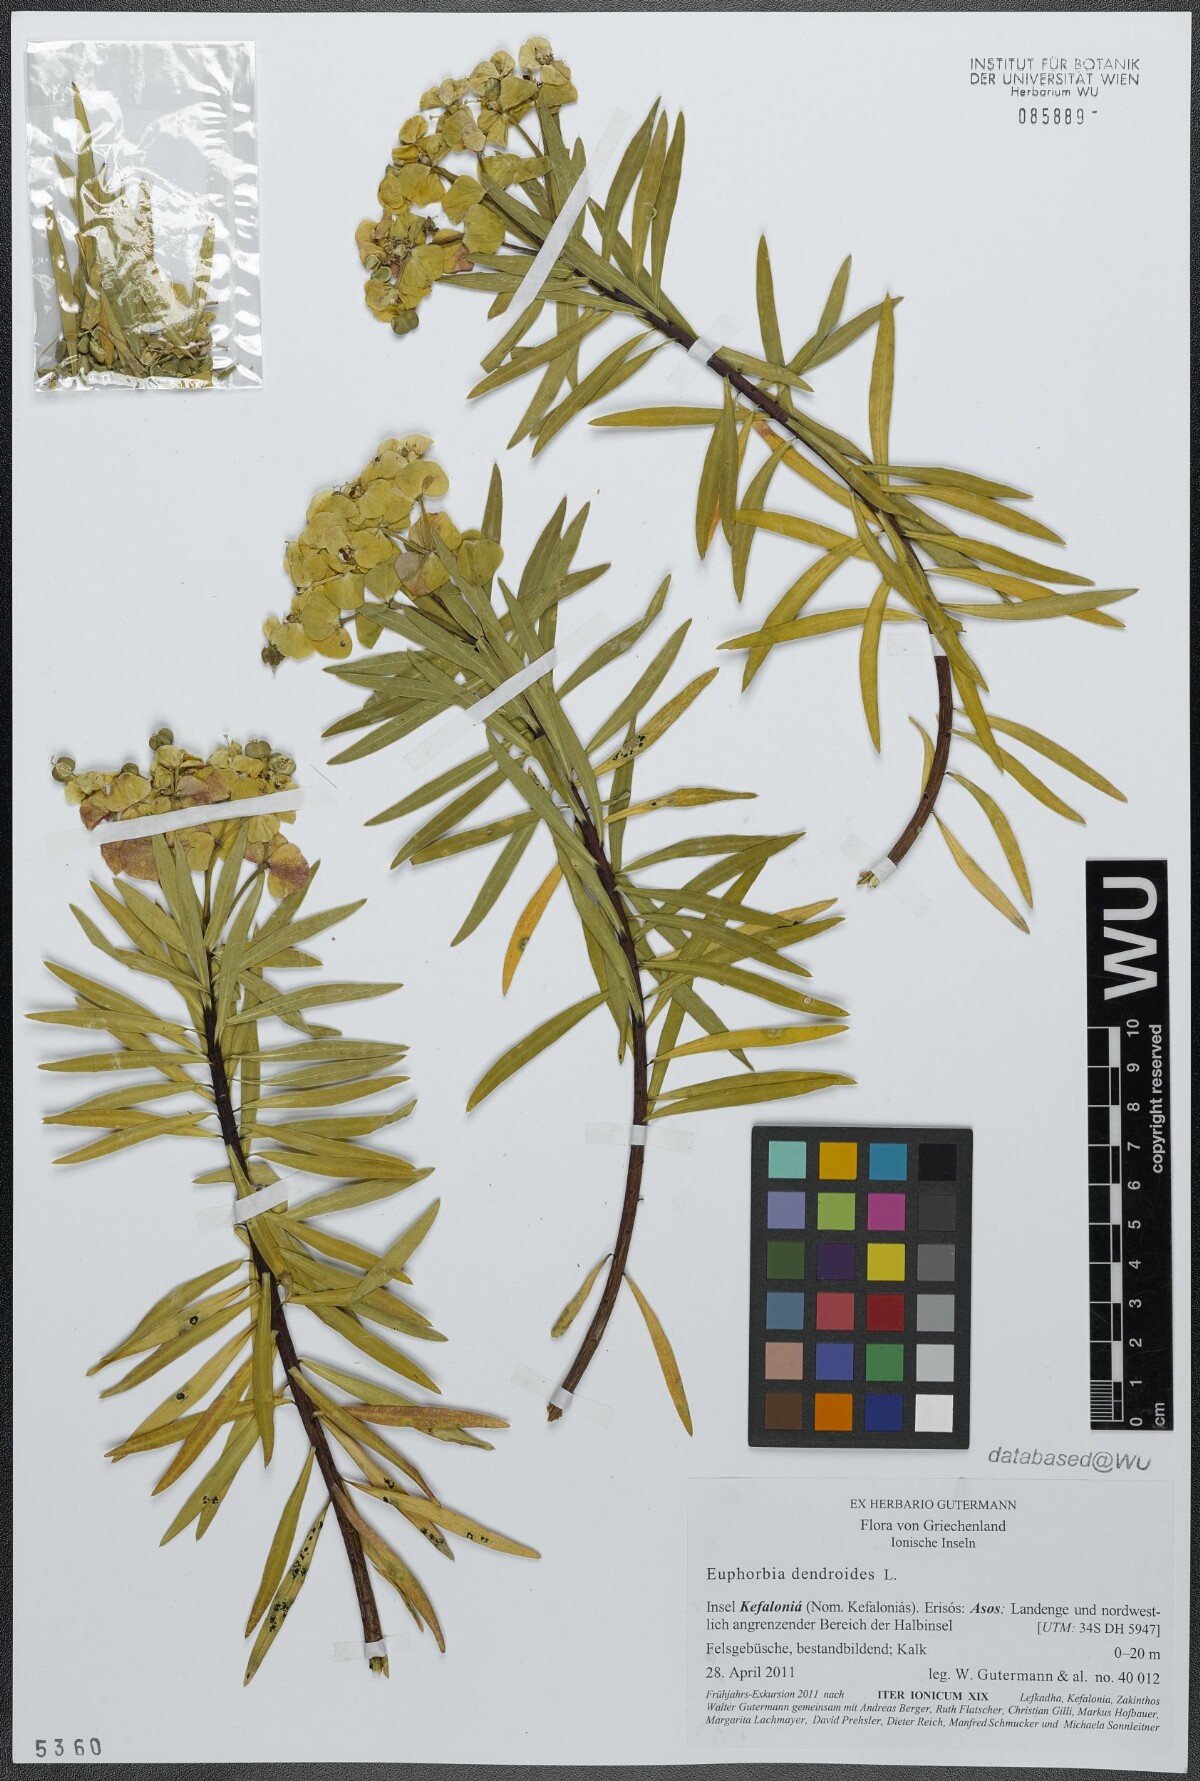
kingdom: Plantae
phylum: Tracheophyta
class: Magnoliopsida
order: Malpighiales
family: Euphorbiaceae
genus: Euphorbia
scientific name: Euphorbia dendroides
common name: Tree spurge
